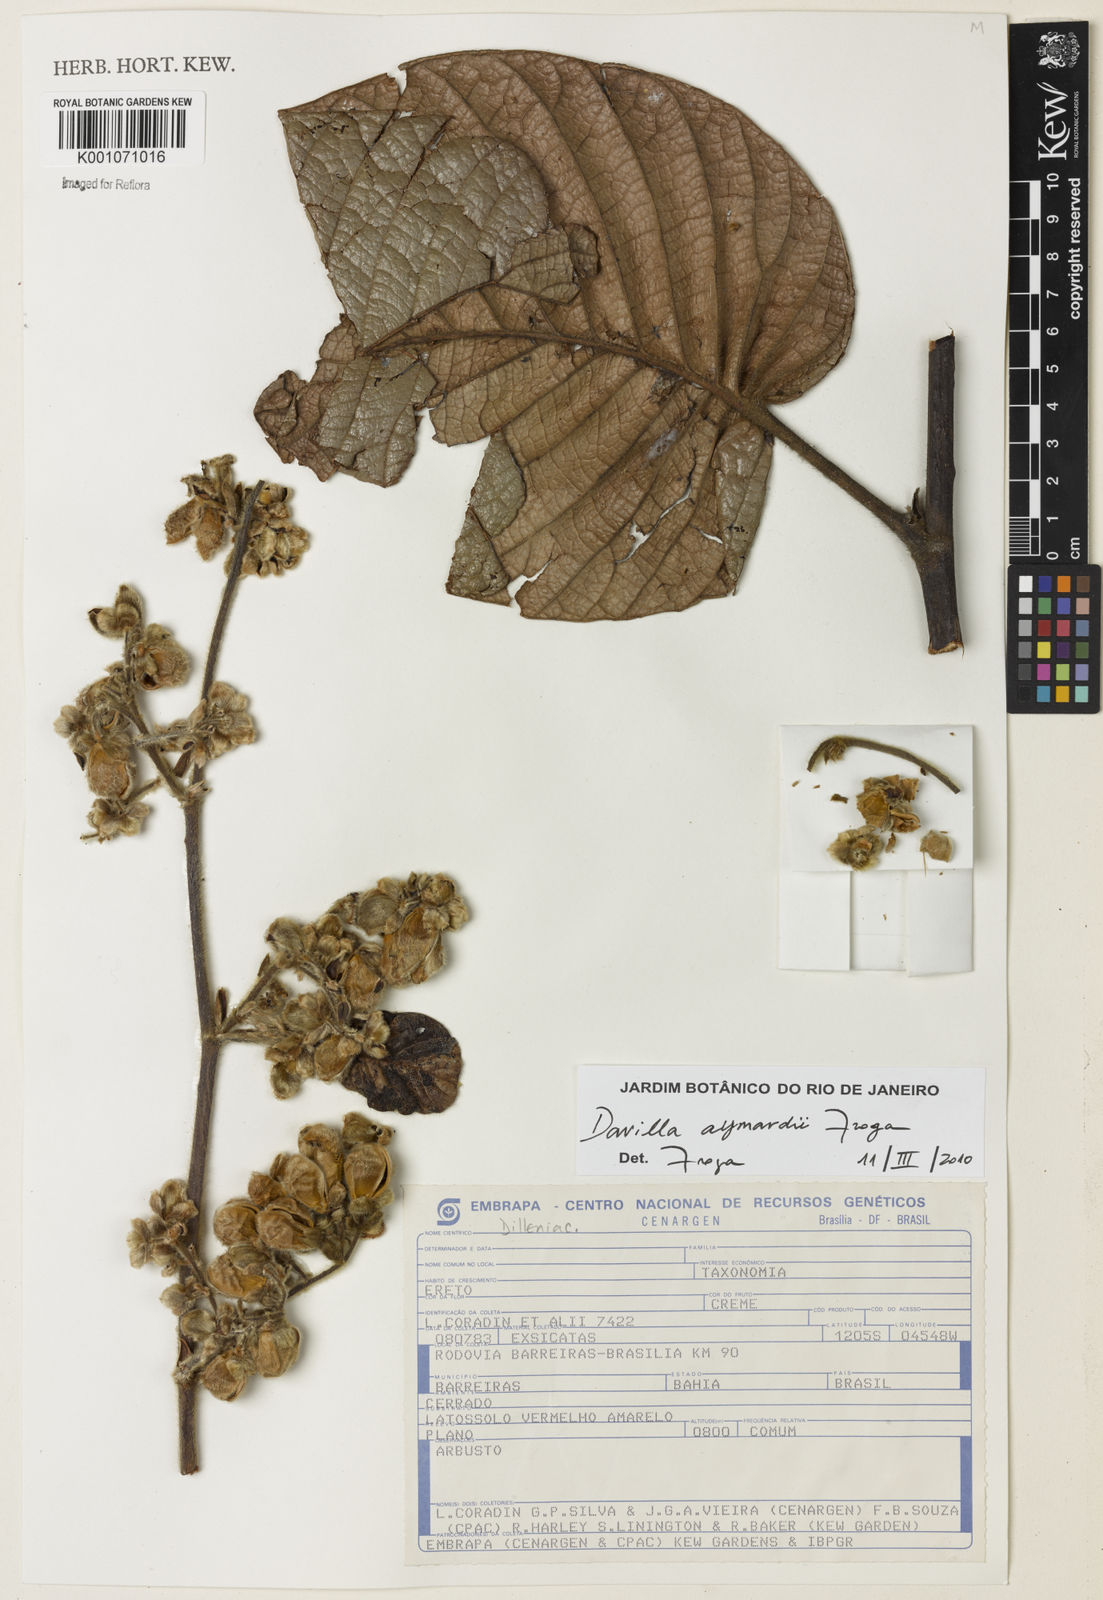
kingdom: Plantae
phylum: Tracheophyta
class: Magnoliopsida
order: Dilleniales
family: Dilleniaceae
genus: Davilla
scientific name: Davilla aymardii
